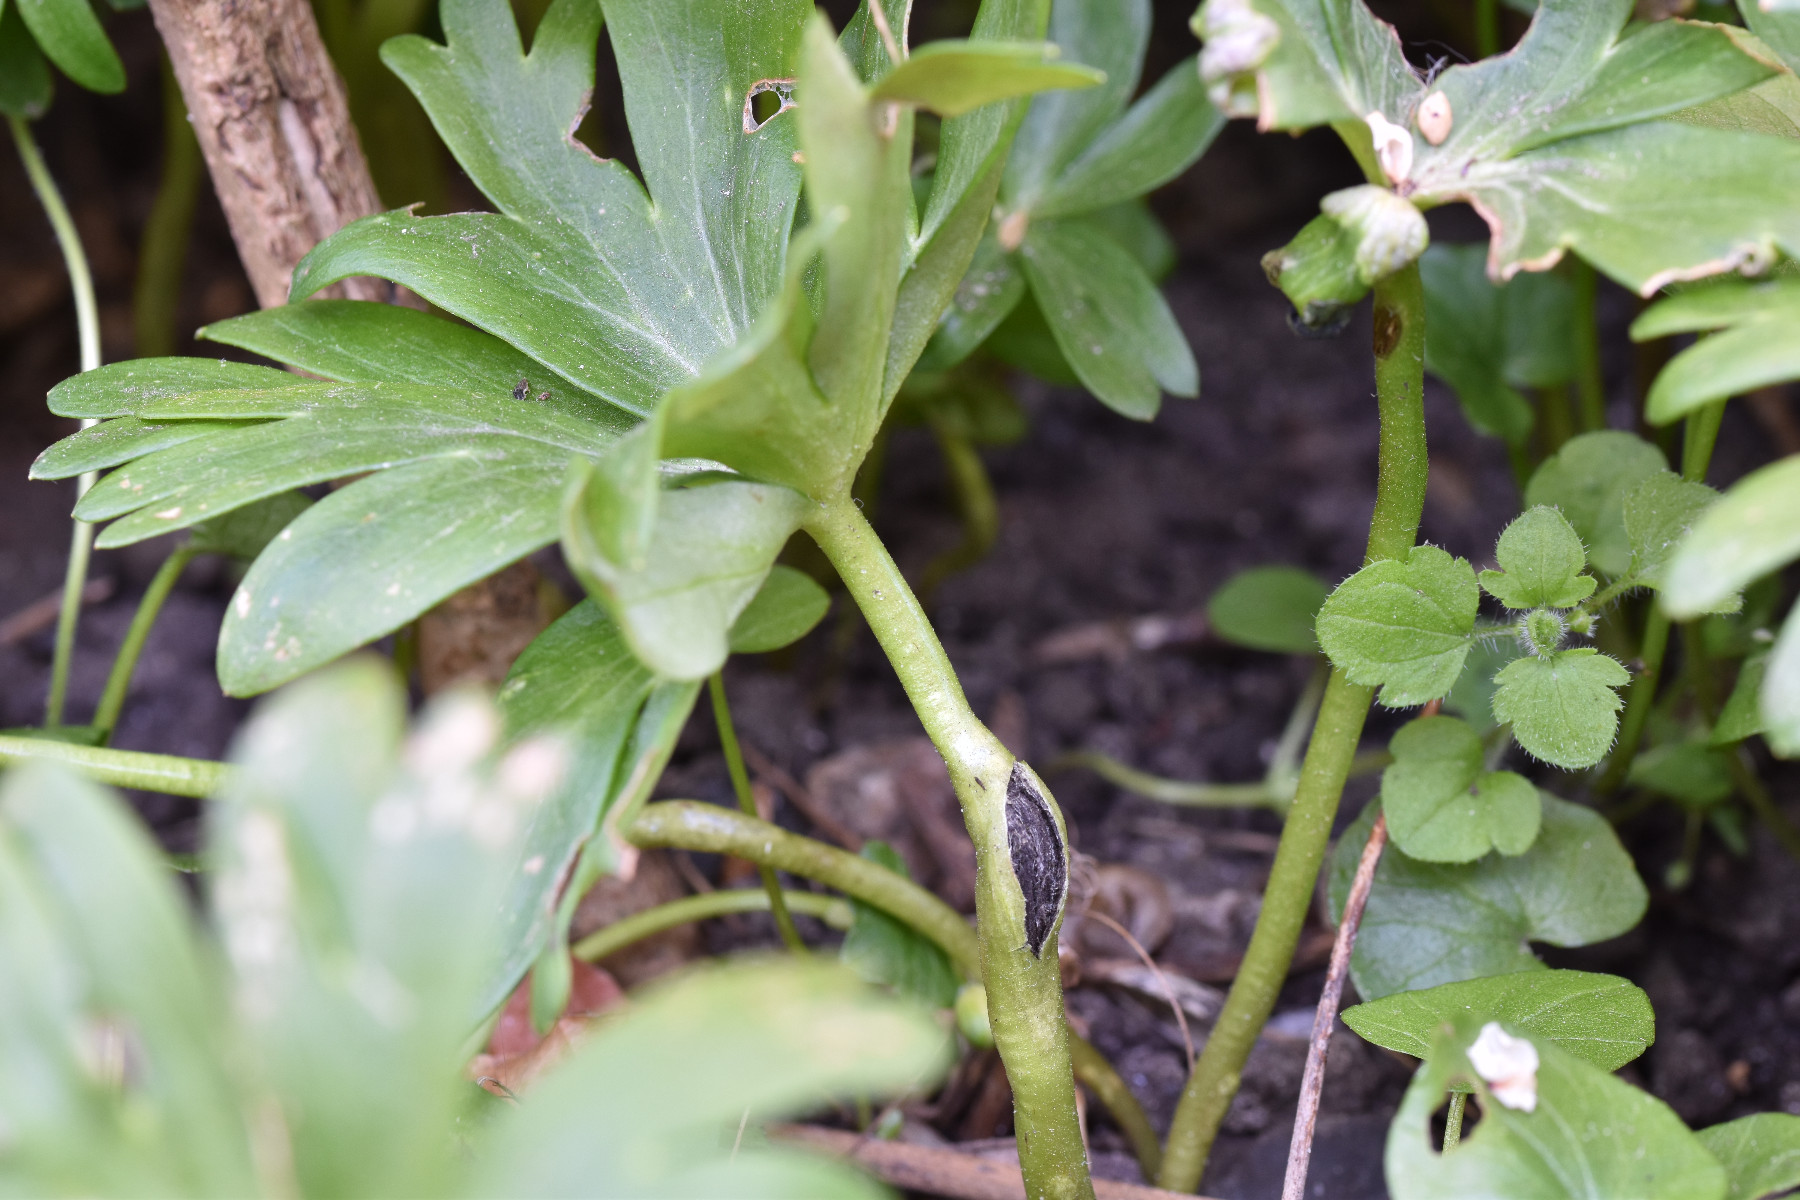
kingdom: Fungi
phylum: Basidiomycota
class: Ustilaginomycetes
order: Urocystidales
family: Urocystidaceae
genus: Urocystis
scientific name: Urocystis eranthidis
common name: erantis-brand
